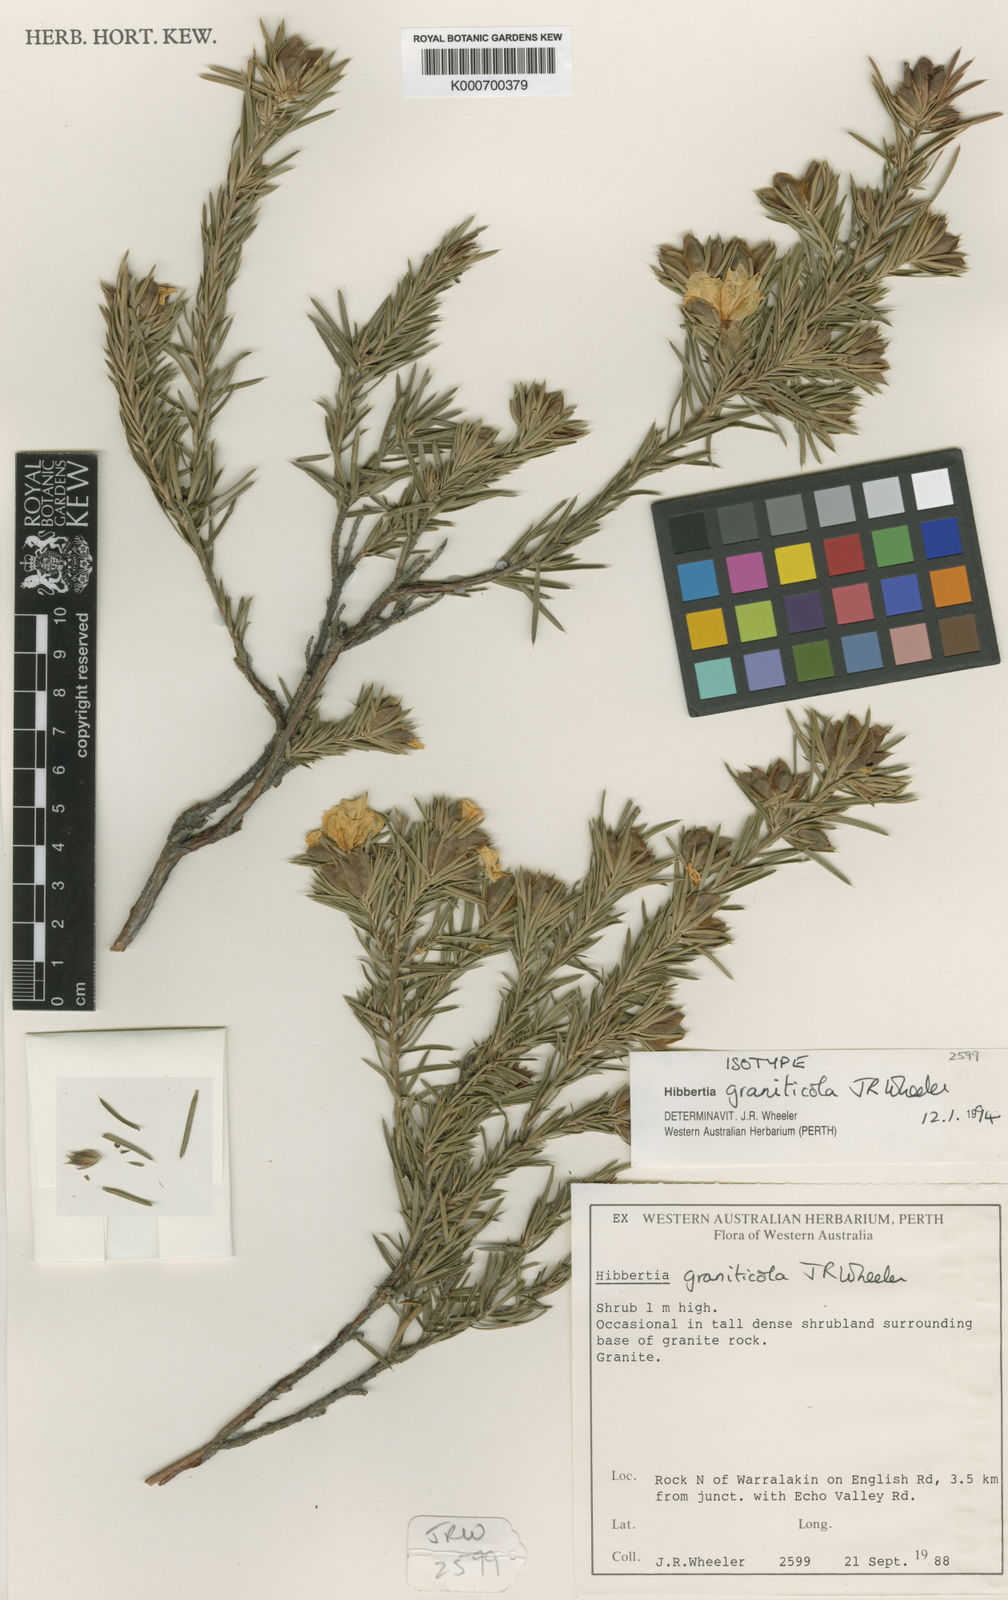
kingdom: Plantae
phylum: Tracheophyta
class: Magnoliopsida
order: Dilleniales
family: Dilleniaceae
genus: Hibbertia
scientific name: Hibbertia graniticola
